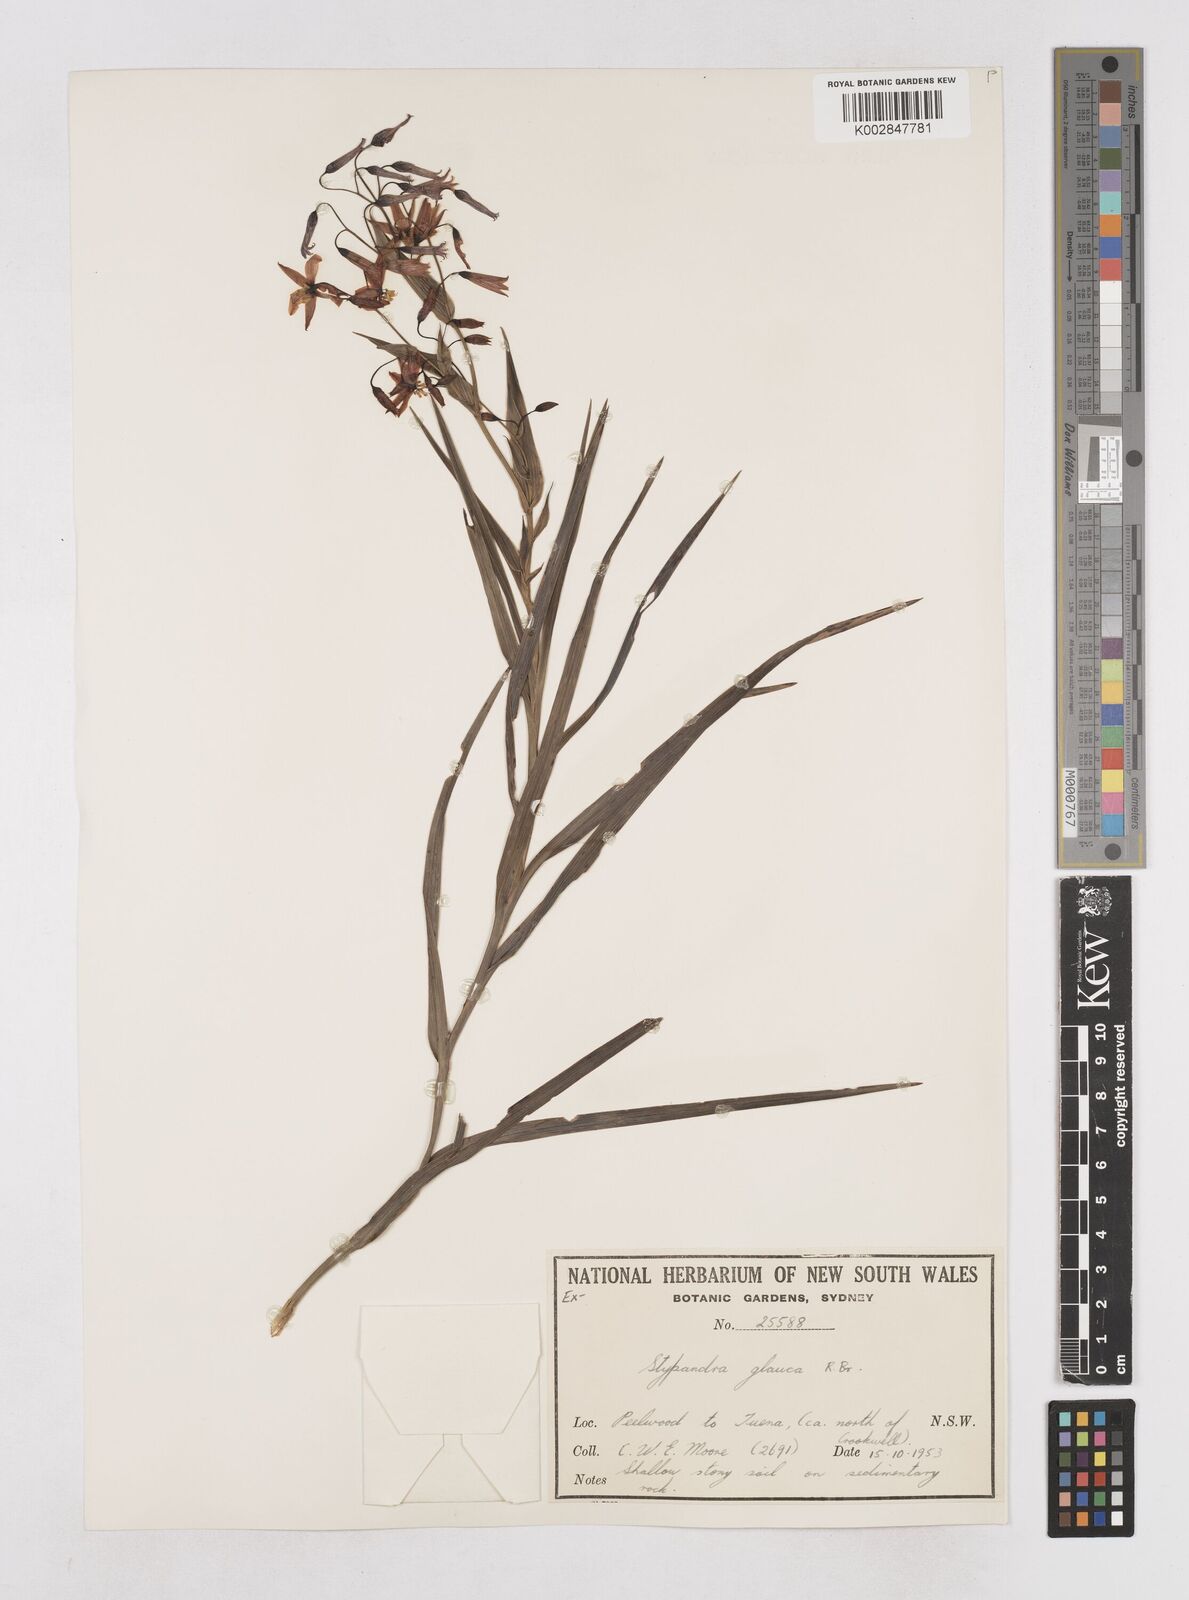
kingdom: Plantae
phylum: Tracheophyta
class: Liliopsida
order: Asparagales
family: Asphodelaceae
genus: Stypandra
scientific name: Stypandra glauca
